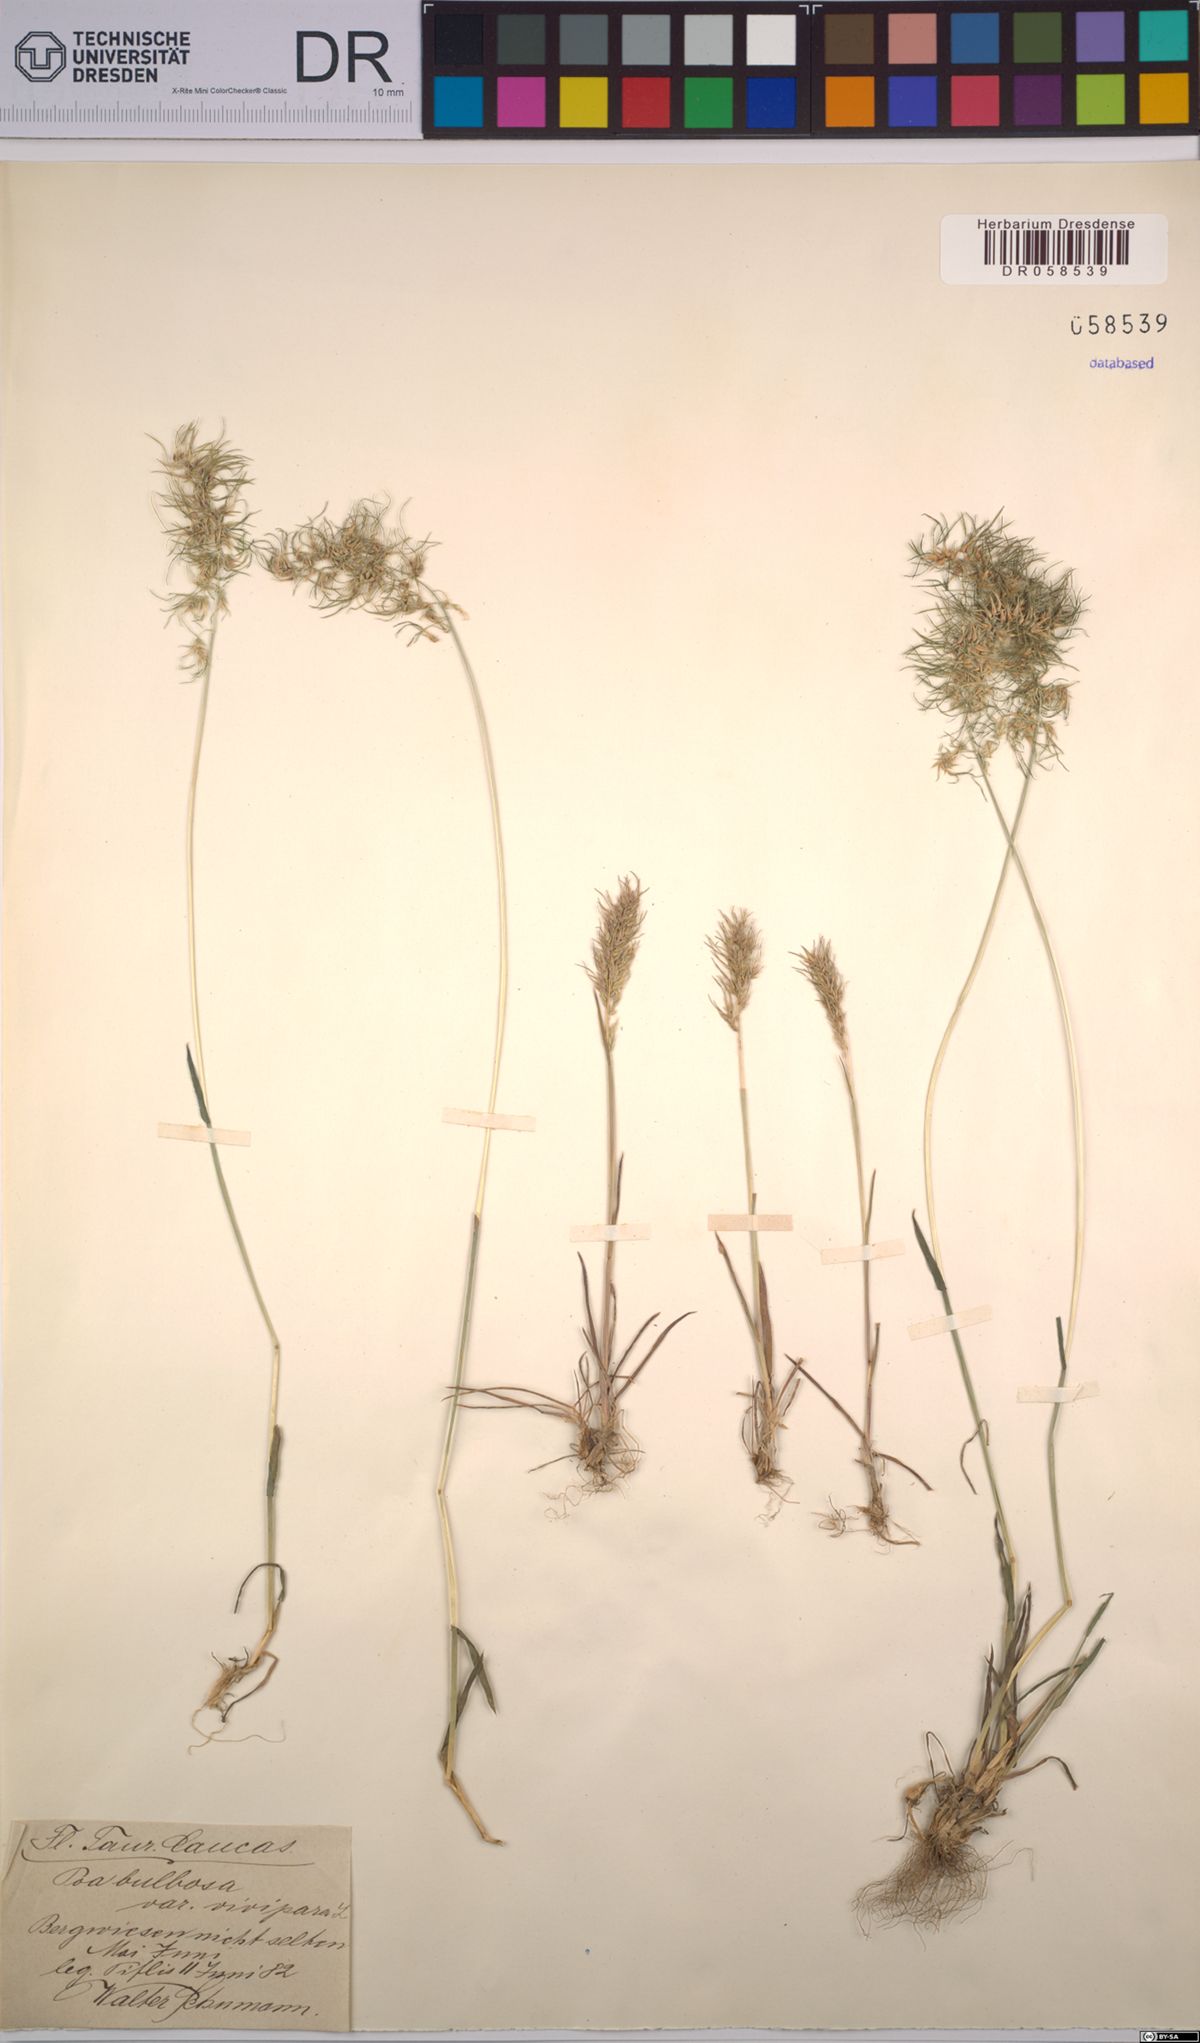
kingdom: Plantae
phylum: Tracheophyta
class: Liliopsida
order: Poales
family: Poaceae
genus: Poa
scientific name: Poa bulbosa
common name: Bulbous bluegrass
